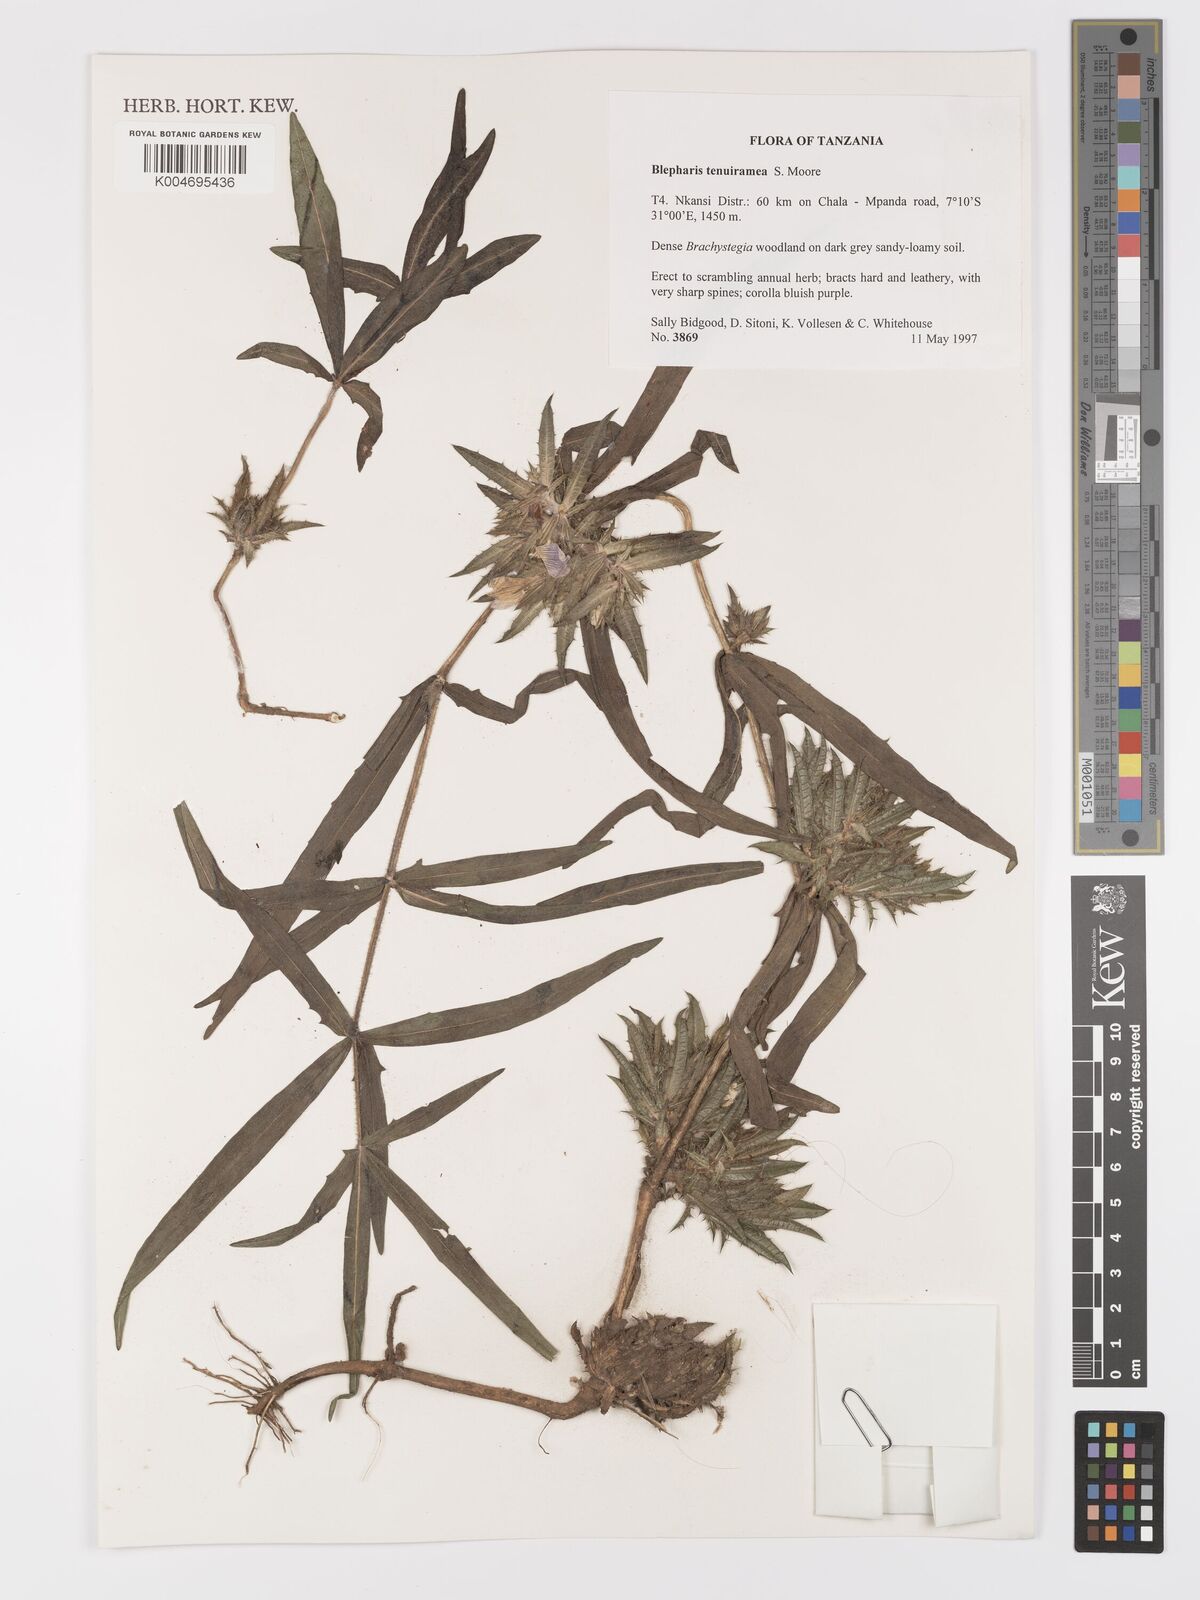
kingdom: Plantae
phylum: Tracheophyta
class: Magnoliopsida
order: Lamiales
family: Acanthaceae
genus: Blepharis
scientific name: Blepharis tenuiramea
